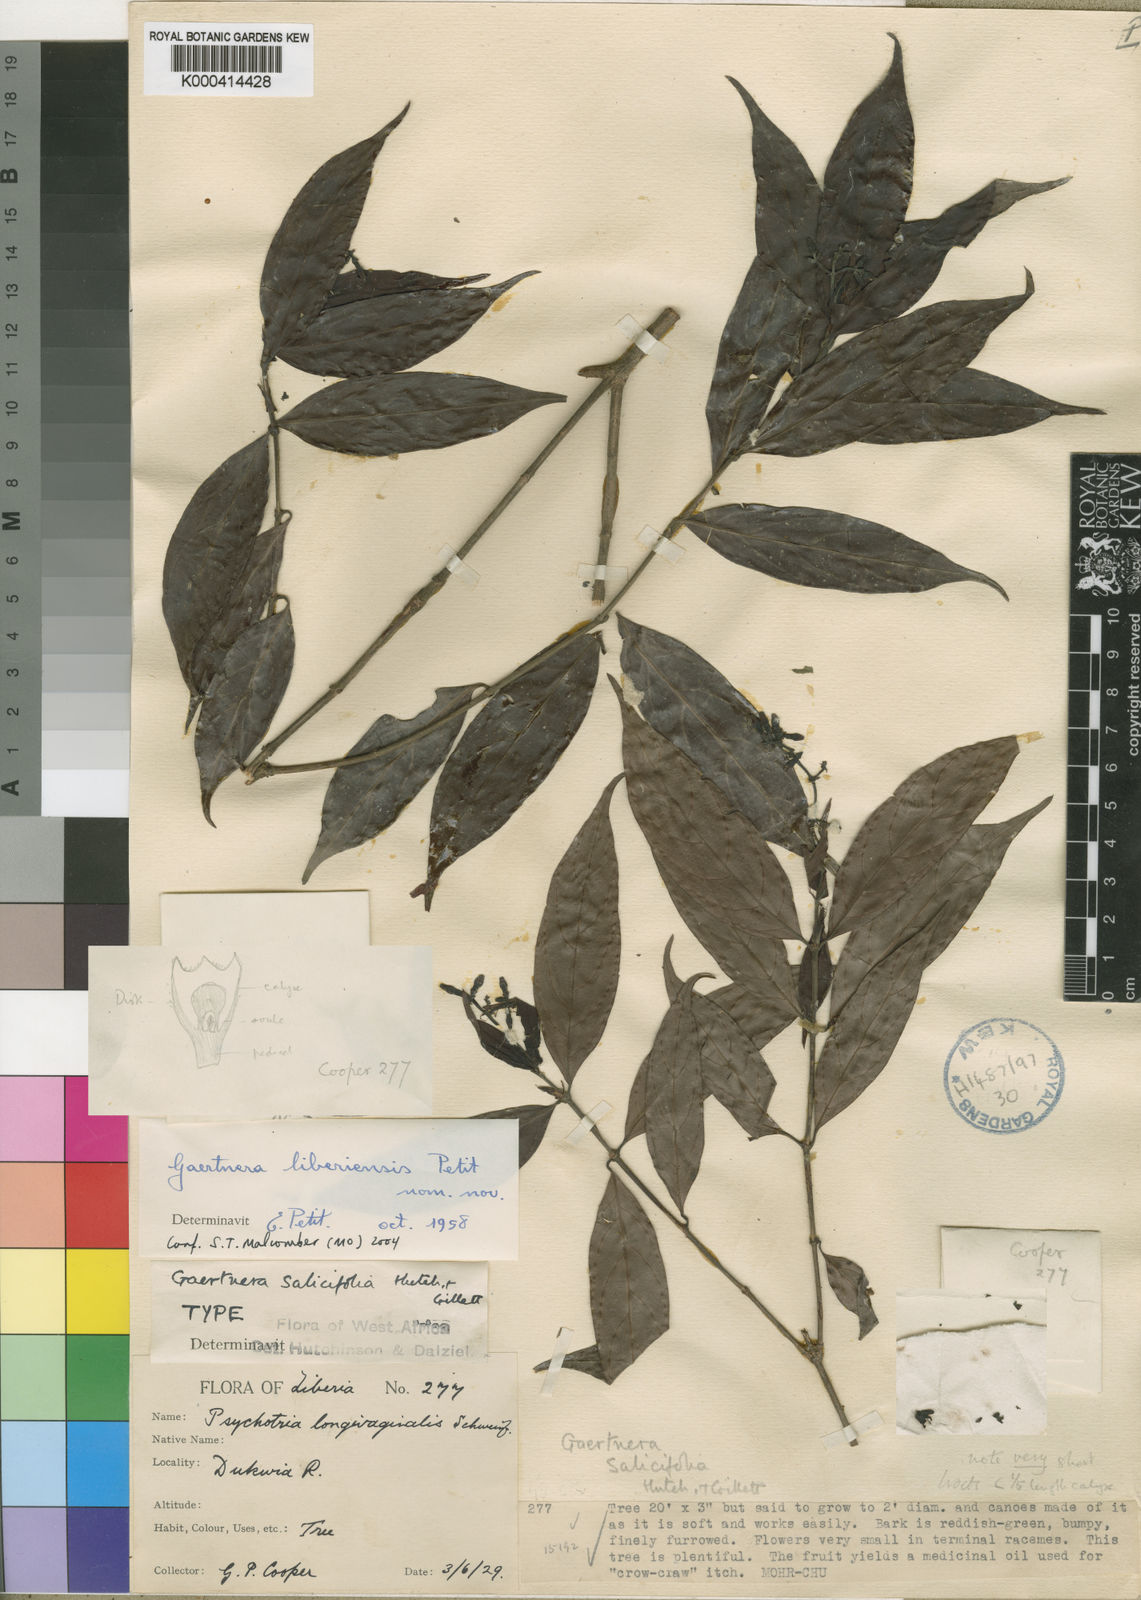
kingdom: Plantae
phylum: Tracheophyta
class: Magnoliopsida
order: Gentianales
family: Rubiaceae
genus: Gaertnera
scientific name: Gaertnera liberiensis
